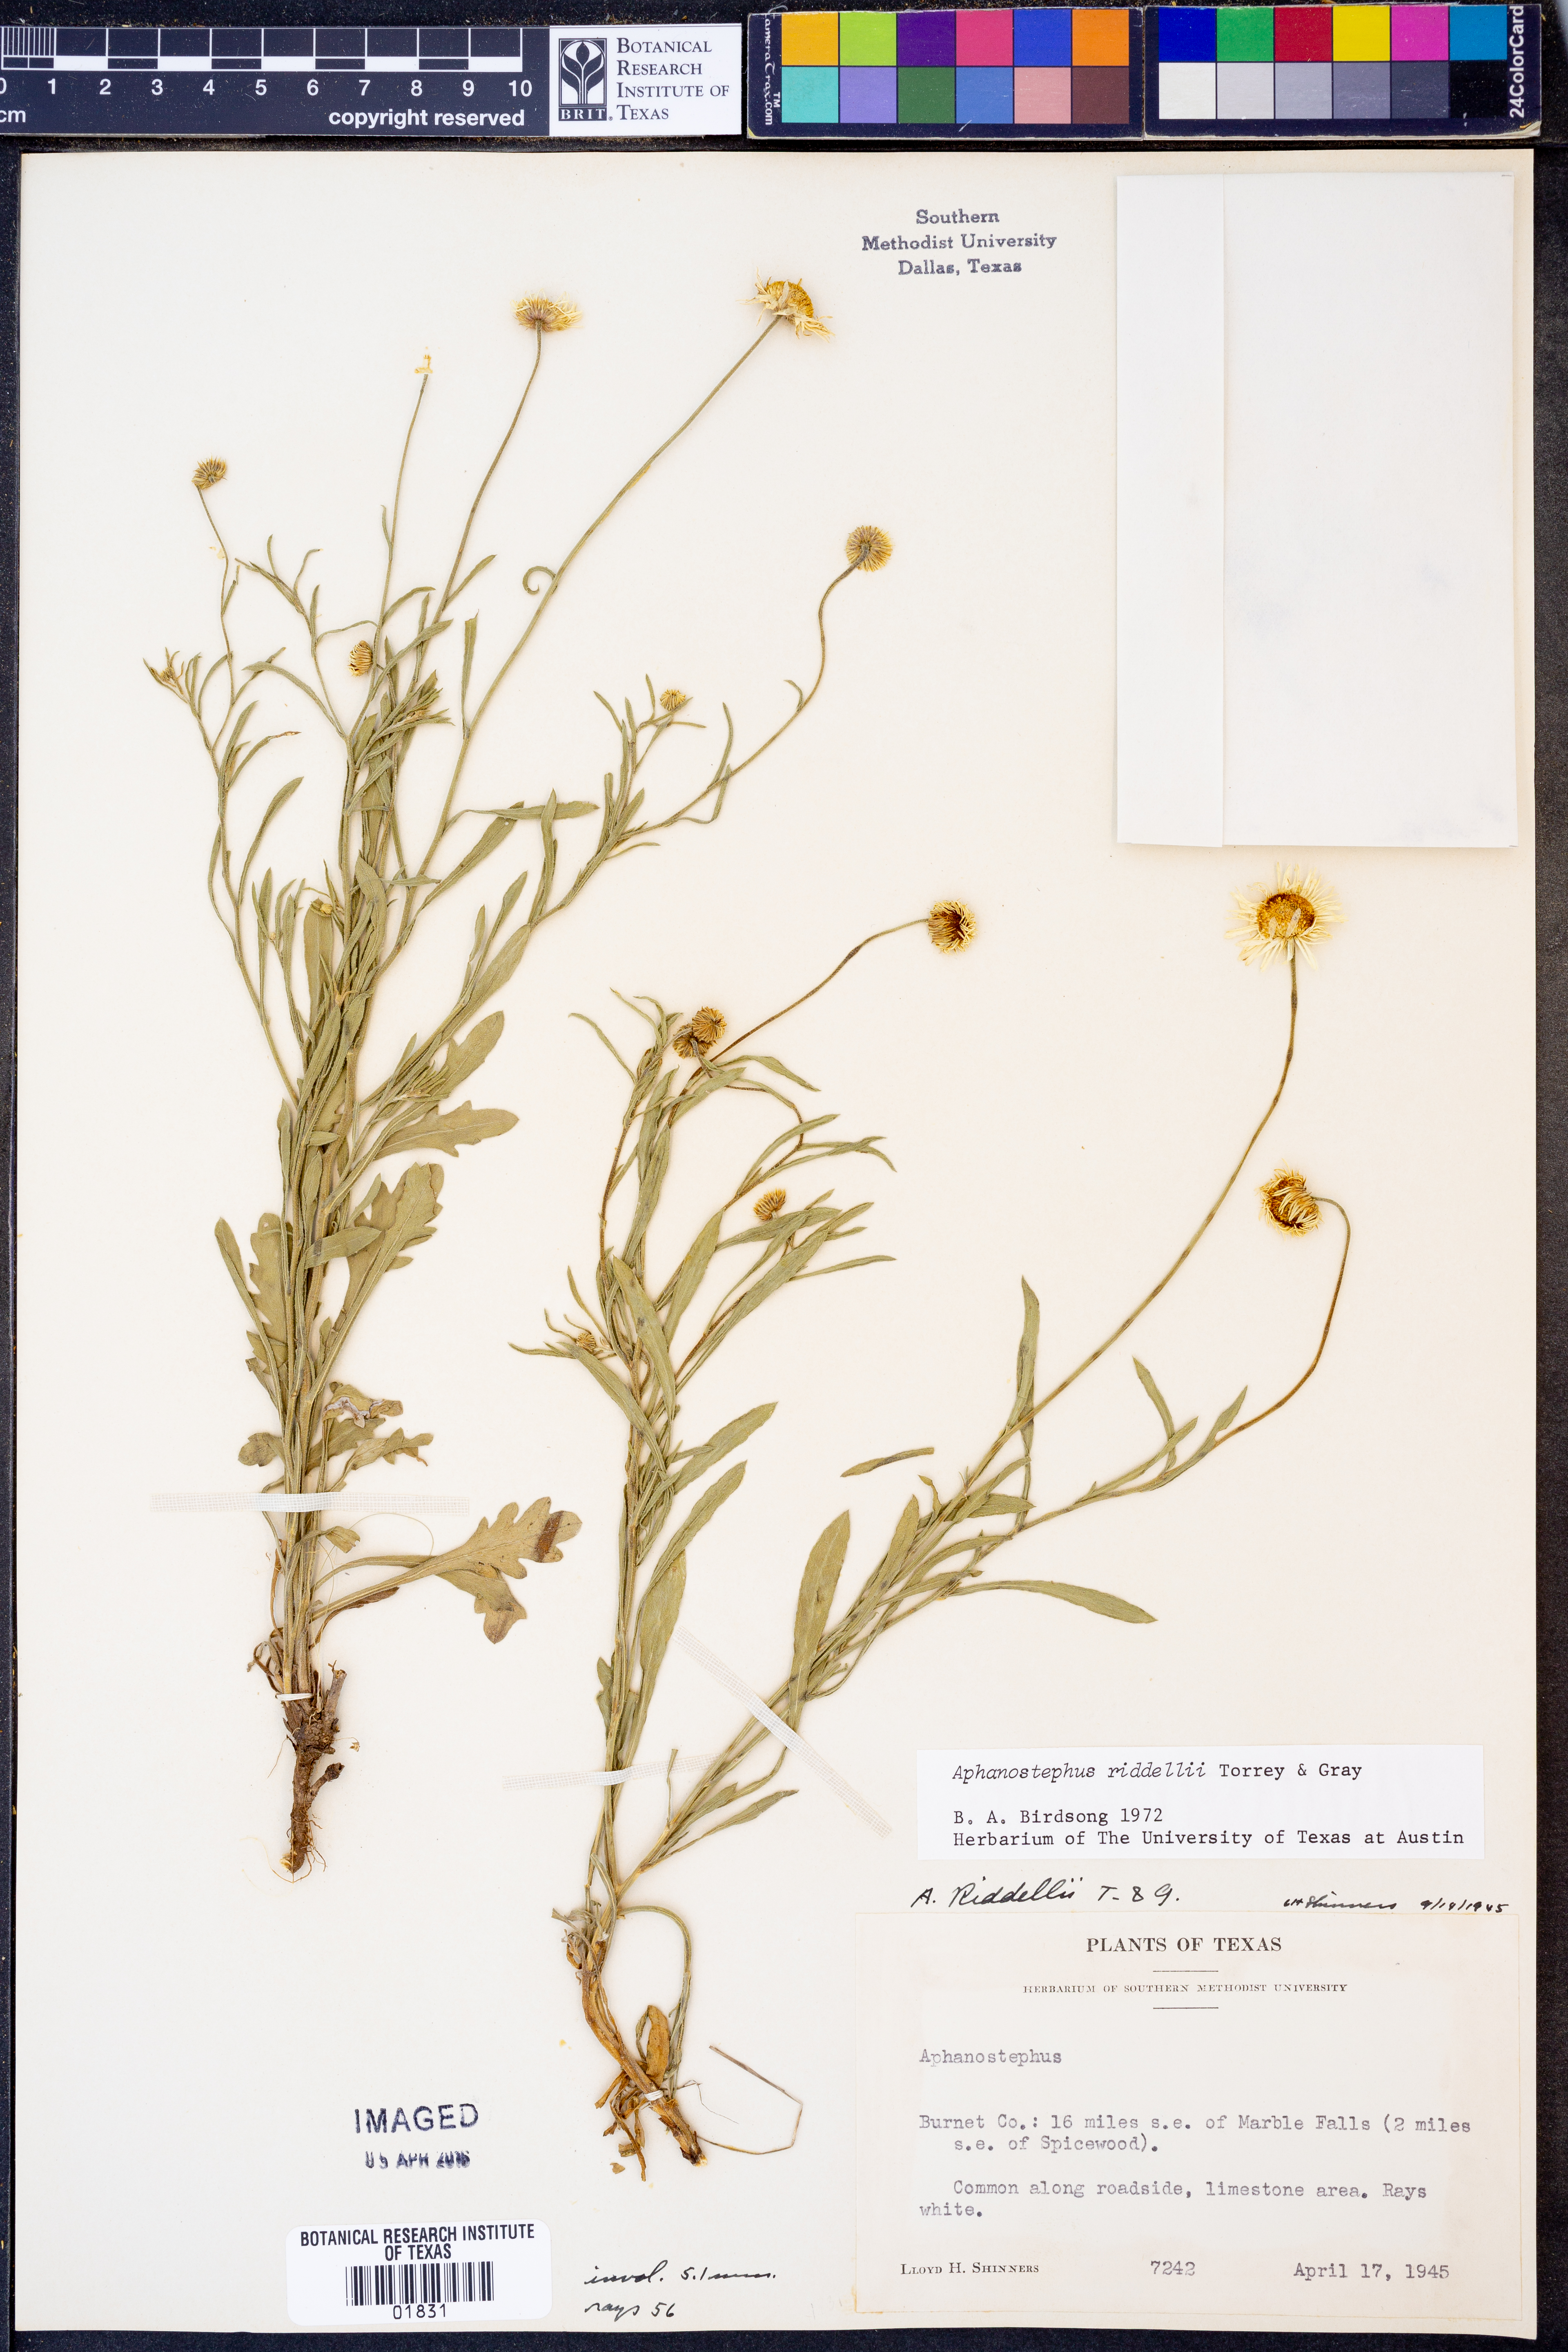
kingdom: Plantae
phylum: Tracheophyta
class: Magnoliopsida
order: Asterales
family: Asteraceae
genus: Aphanostephus
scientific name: Aphanostephus riddellii
